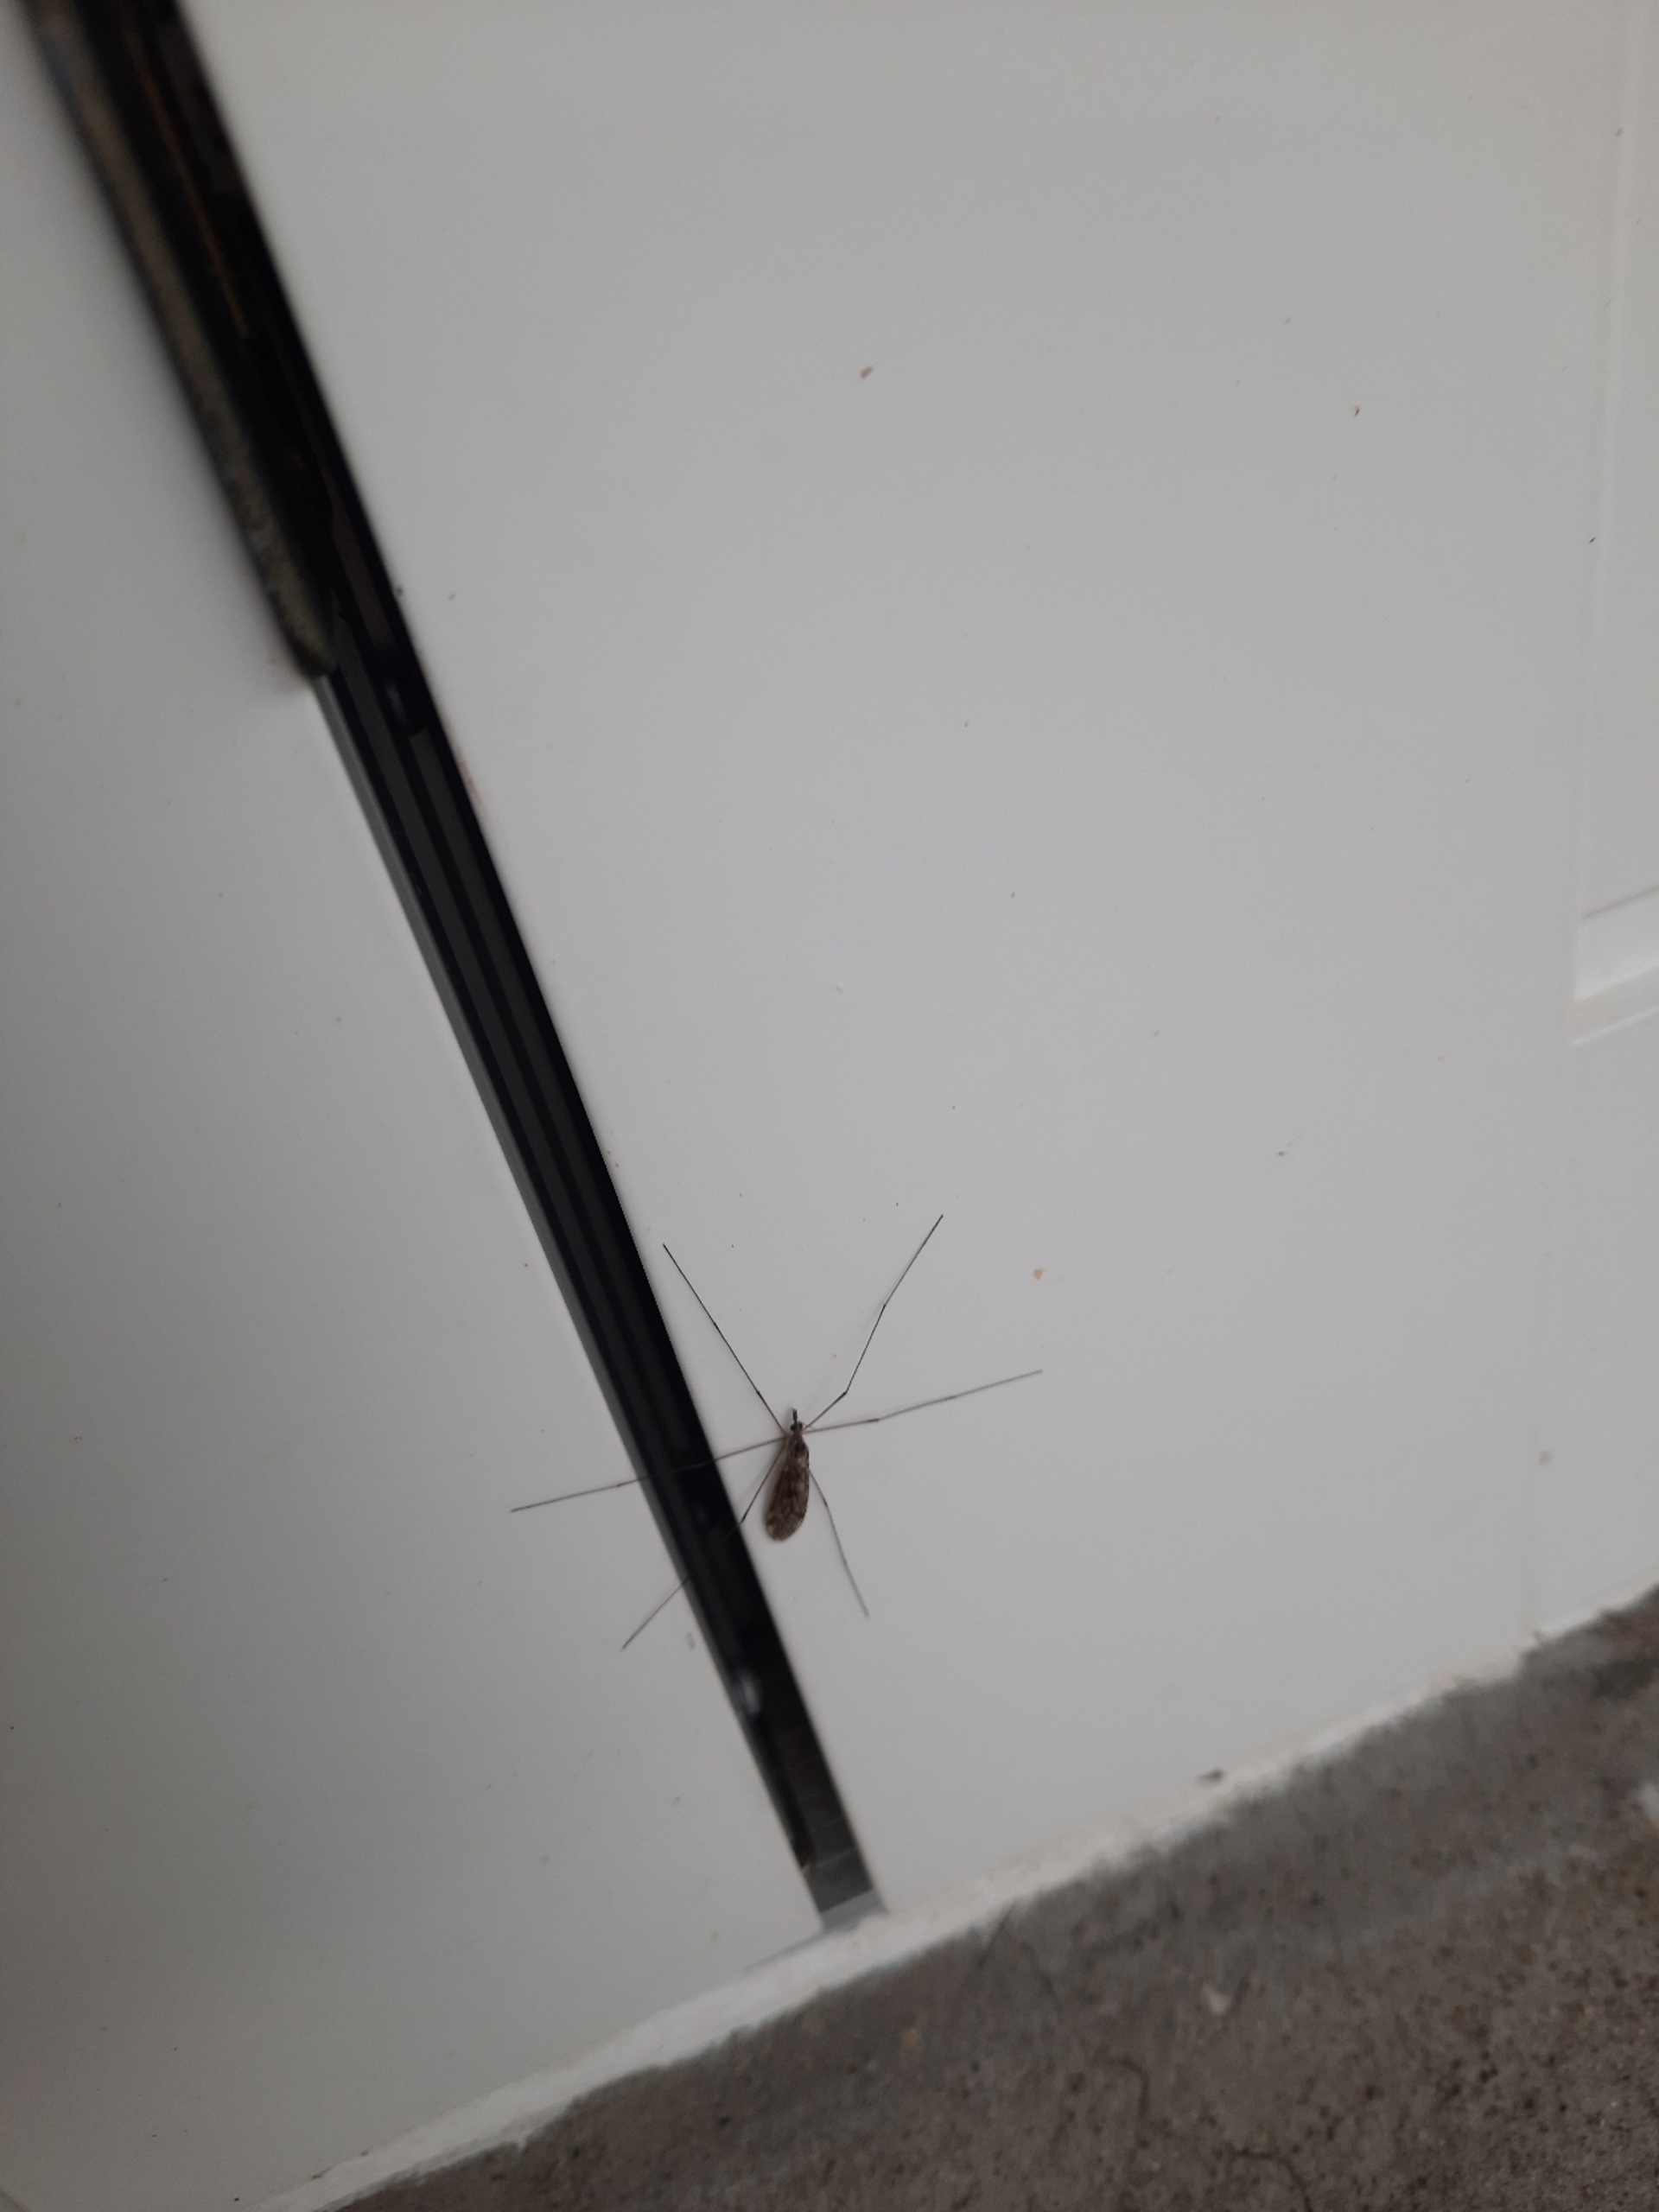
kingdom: Animalia
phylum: Arthropoda
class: Insecta
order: Diptera
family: Limoniidae
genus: Hexatoma
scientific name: Hexatoma
